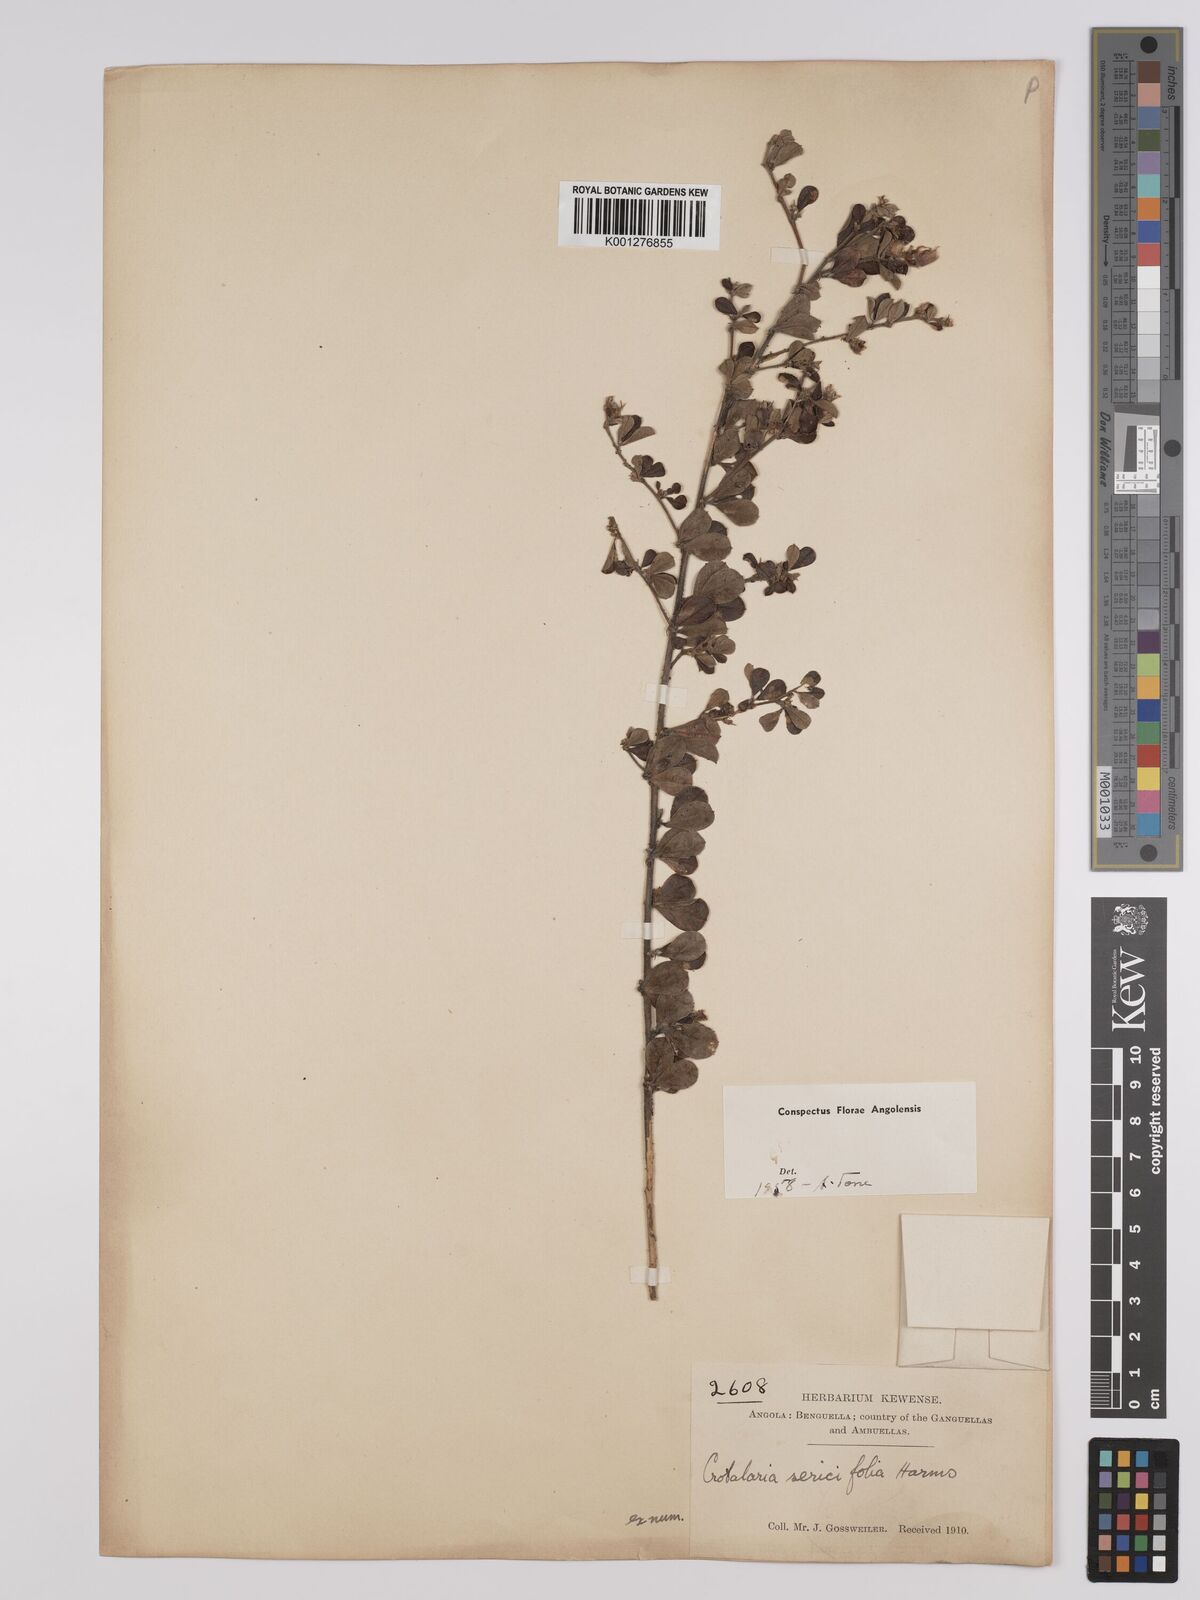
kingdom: Plantae
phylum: Tracheophyta
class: Magnoliopsida
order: Fabales
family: Fabaceae
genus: Crotalaria
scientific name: Crotalaria sericifolia
